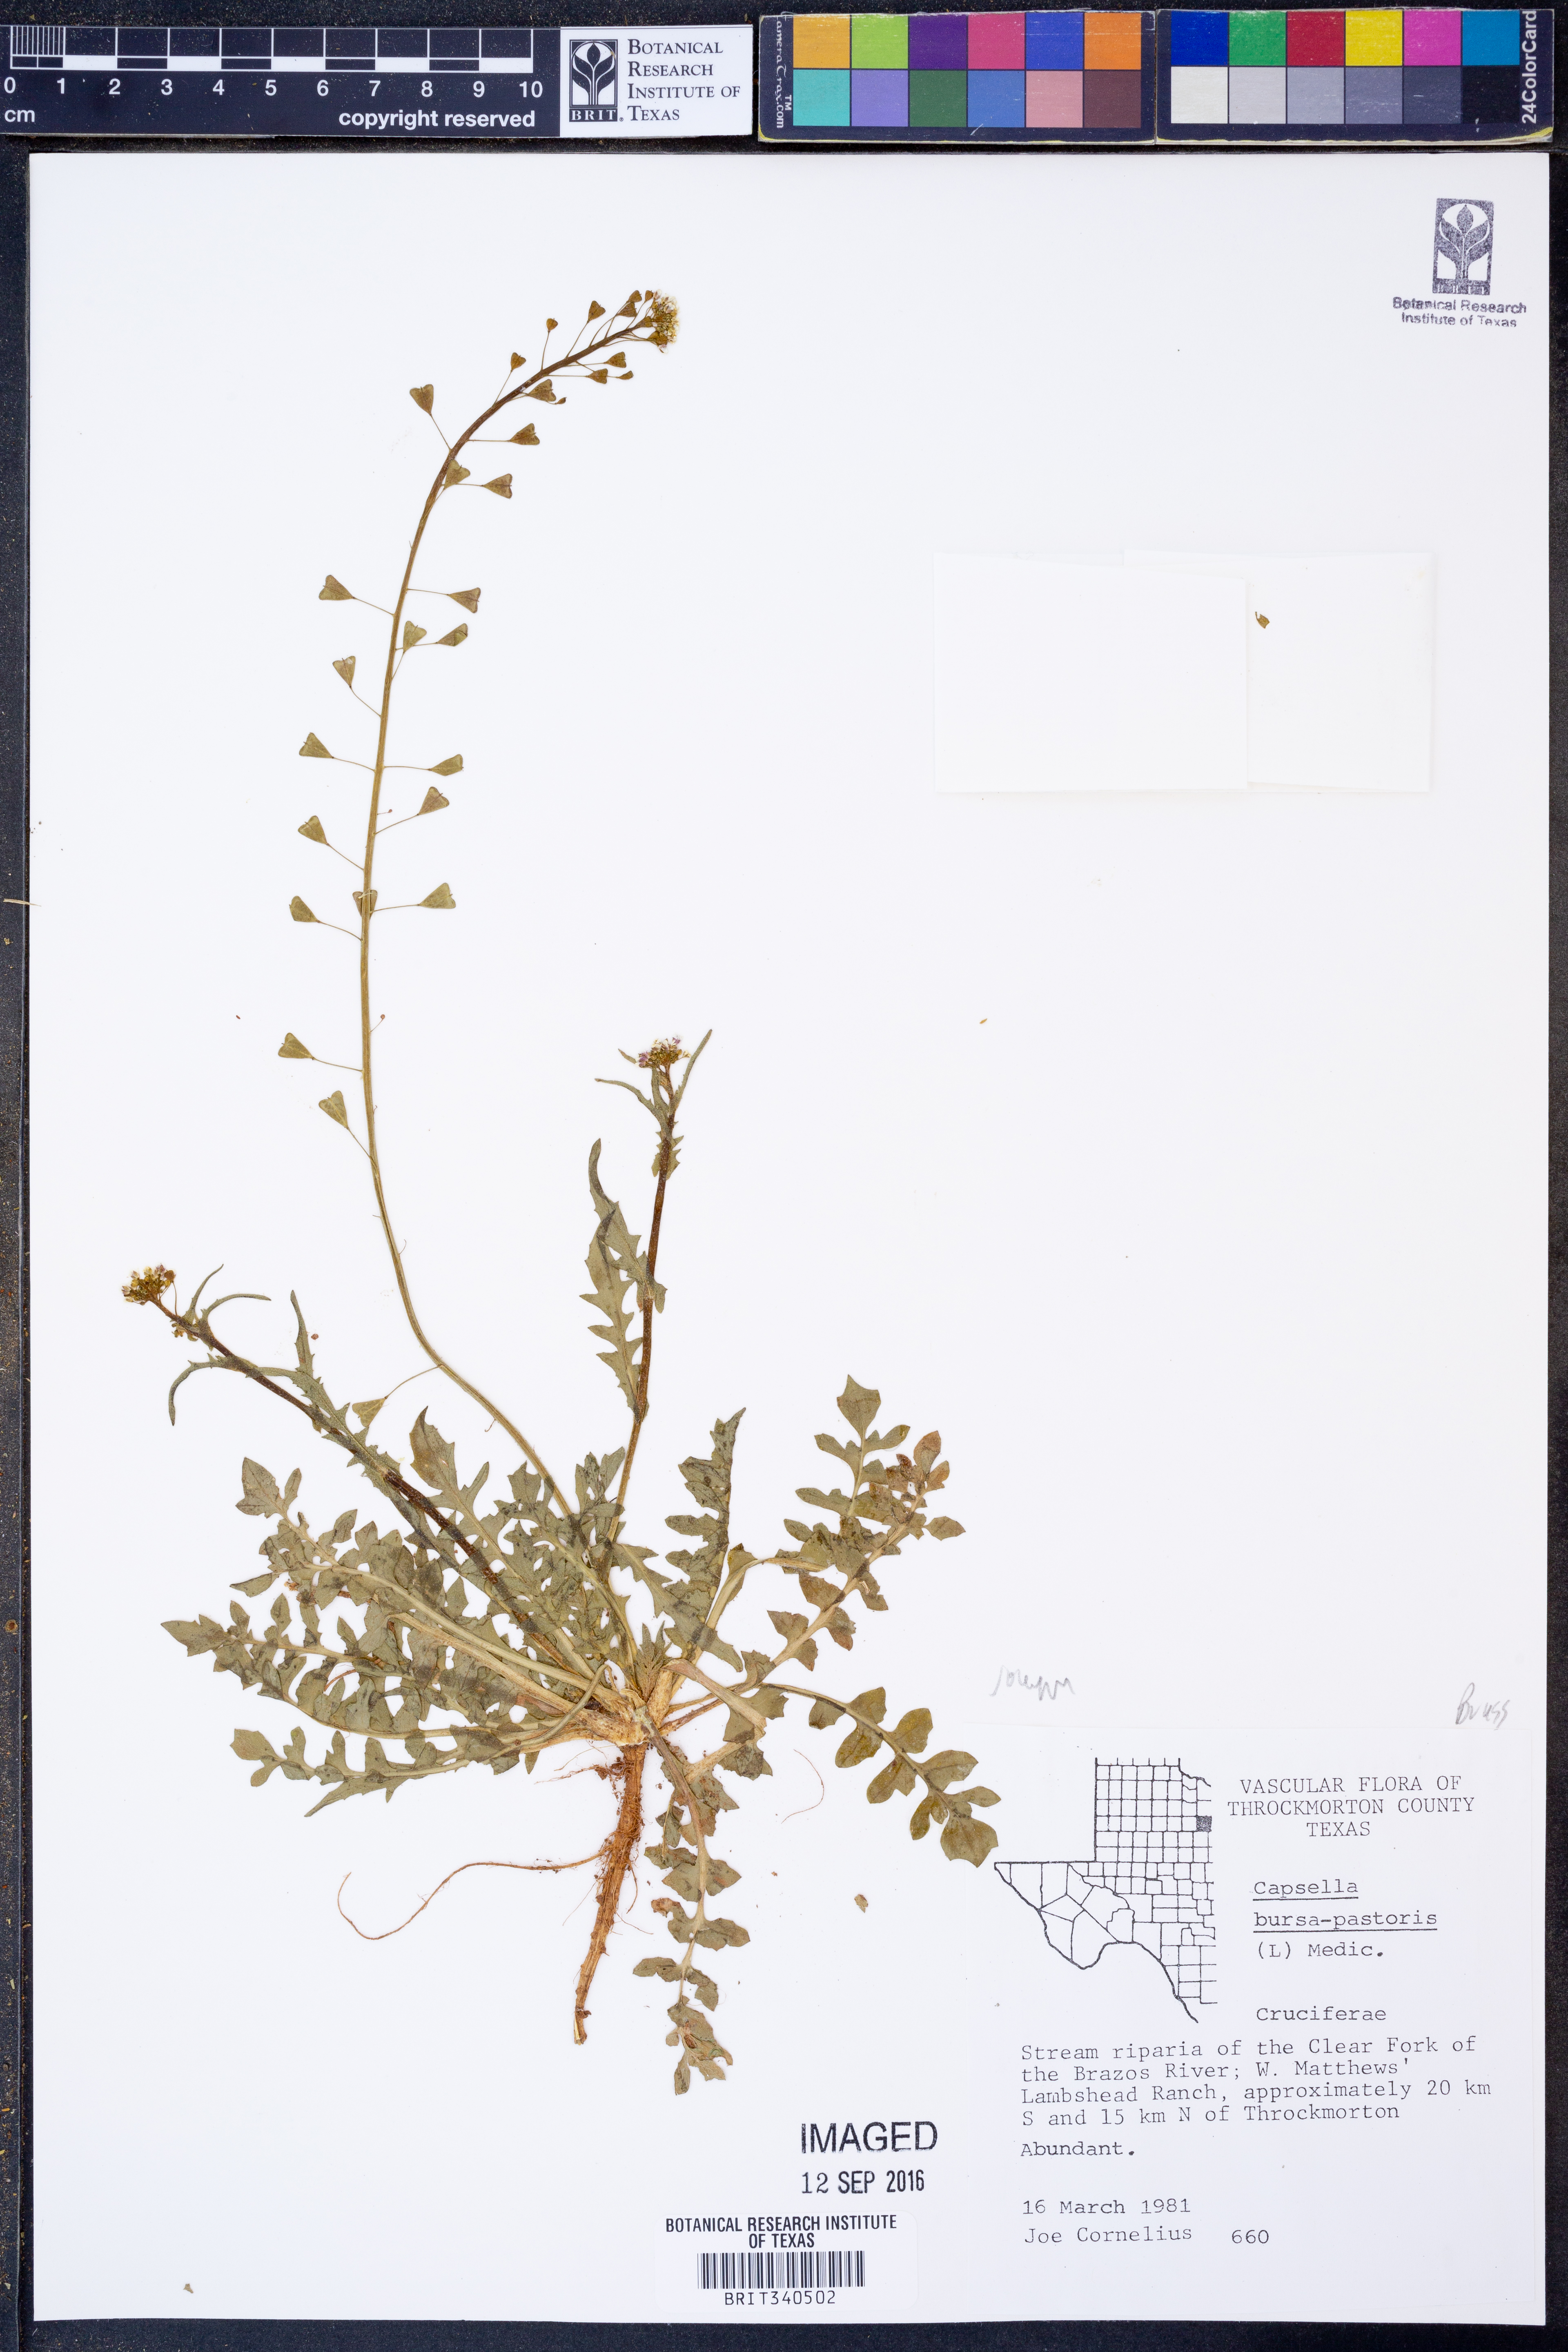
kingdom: Plantae
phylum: Tracheophyta
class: Magnoliopsida
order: Brassicales
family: Brassicaceae
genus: Capsella
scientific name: Capsella bursa-pastoris
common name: Shepherd's purse
